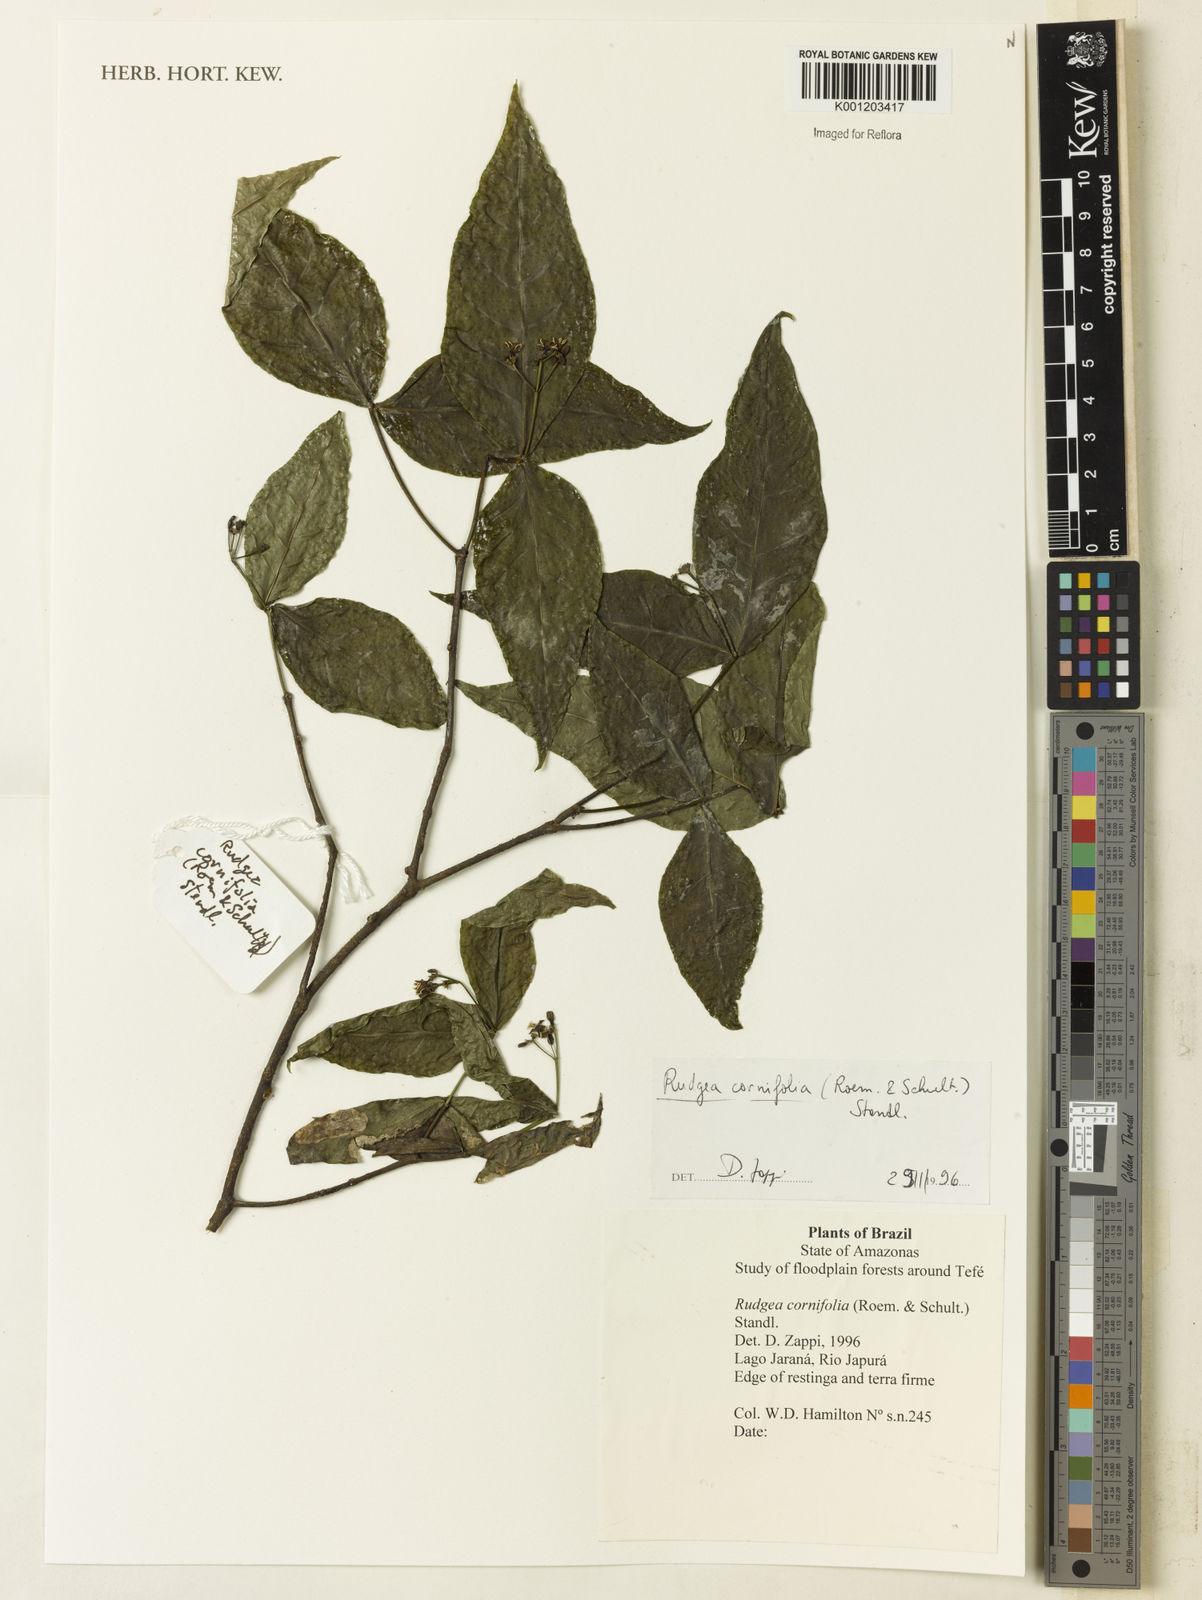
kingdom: Plantae
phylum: Tracheophyta
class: Magnoliopsida
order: Gentianales
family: Rubiaceae
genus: Rudgea
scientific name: Rudgea cornifolia
